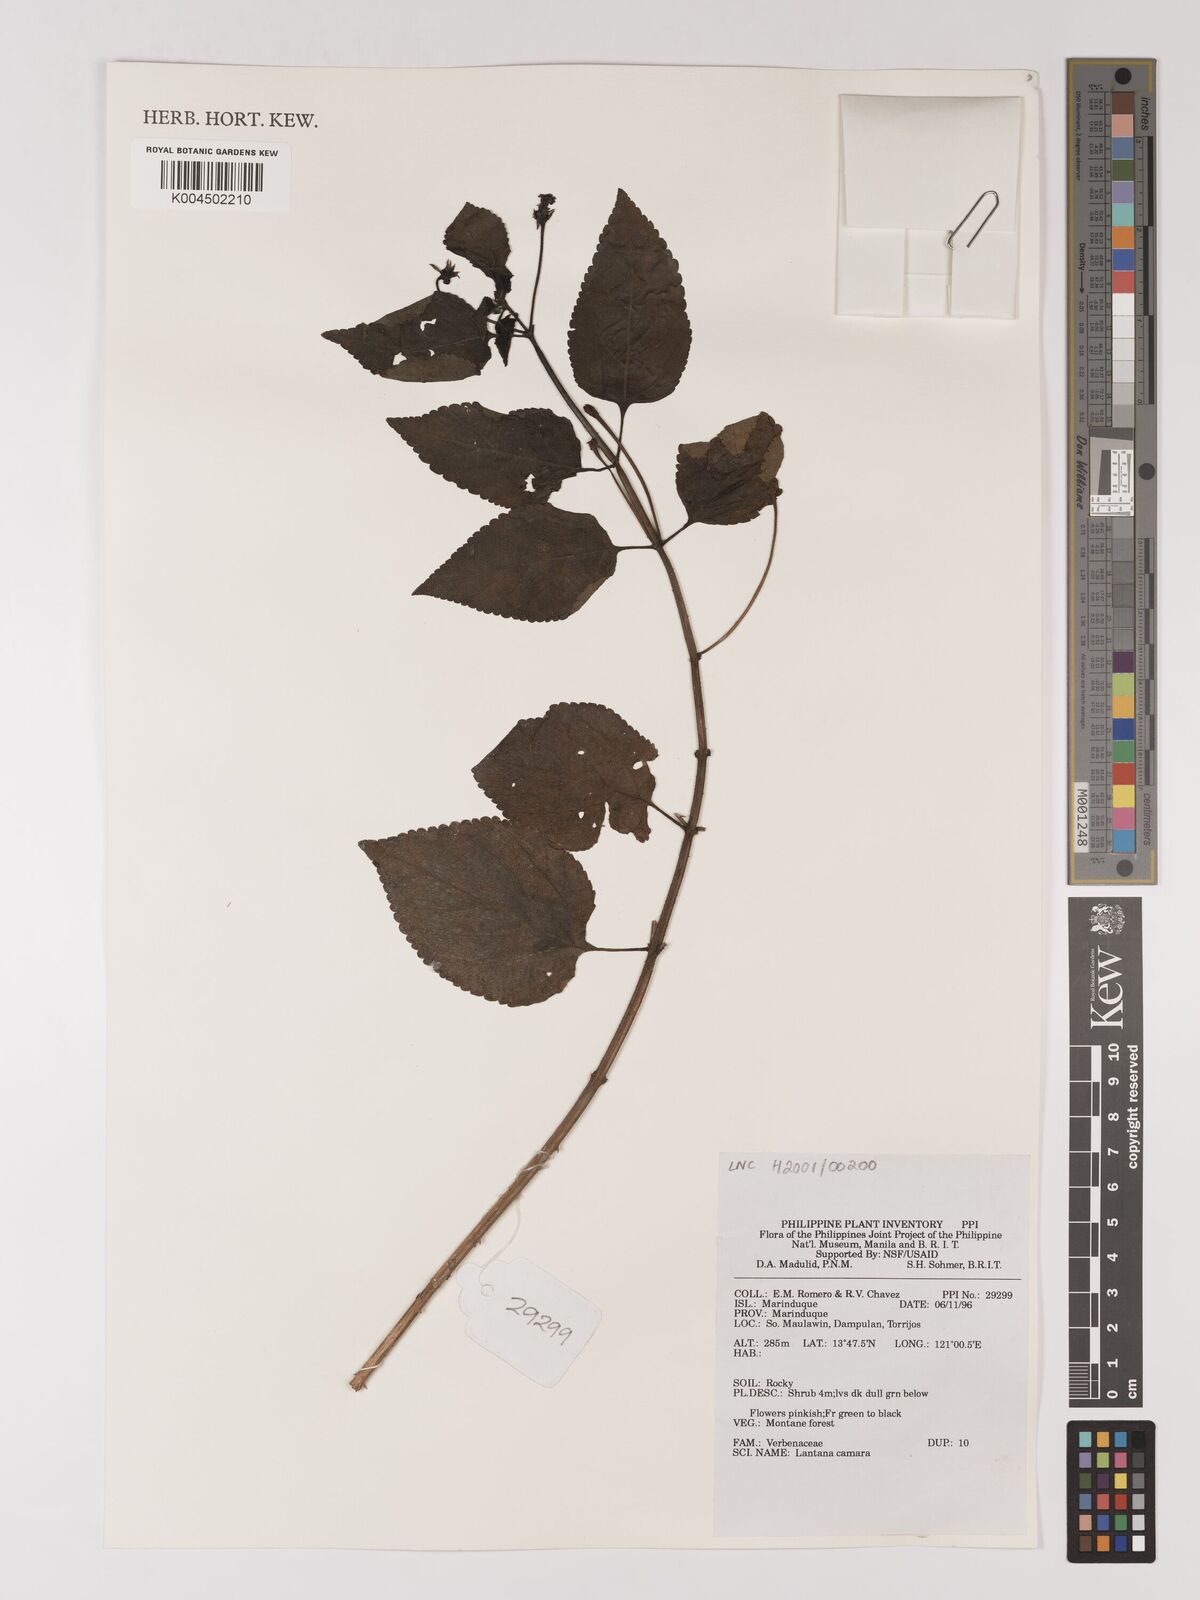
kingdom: Plantae
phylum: Tracheophyta
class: Magnoliopsida
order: Lamiales
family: Verbenaceae
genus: Lantana
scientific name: Lantana
